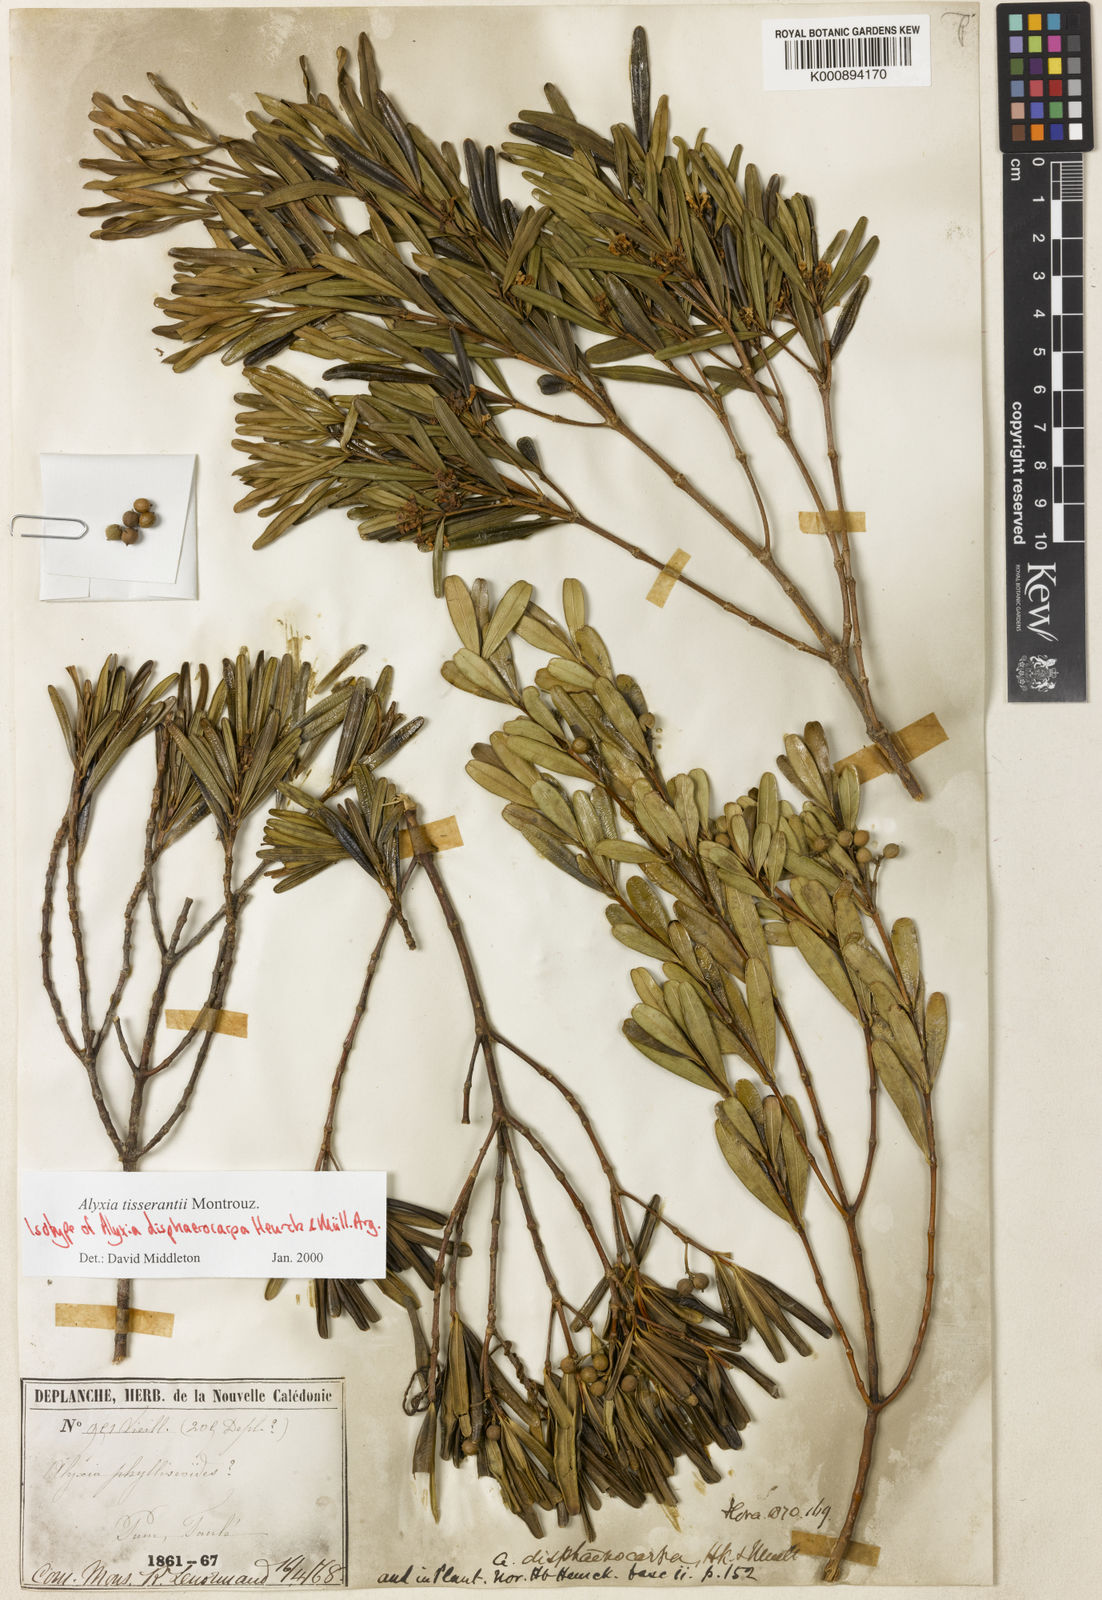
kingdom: Plantae
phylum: Tracheophyta
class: Magnoliopsida
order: Gentianales
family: Apocynaceae
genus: Alyxia
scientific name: Alyxia tisserantii
